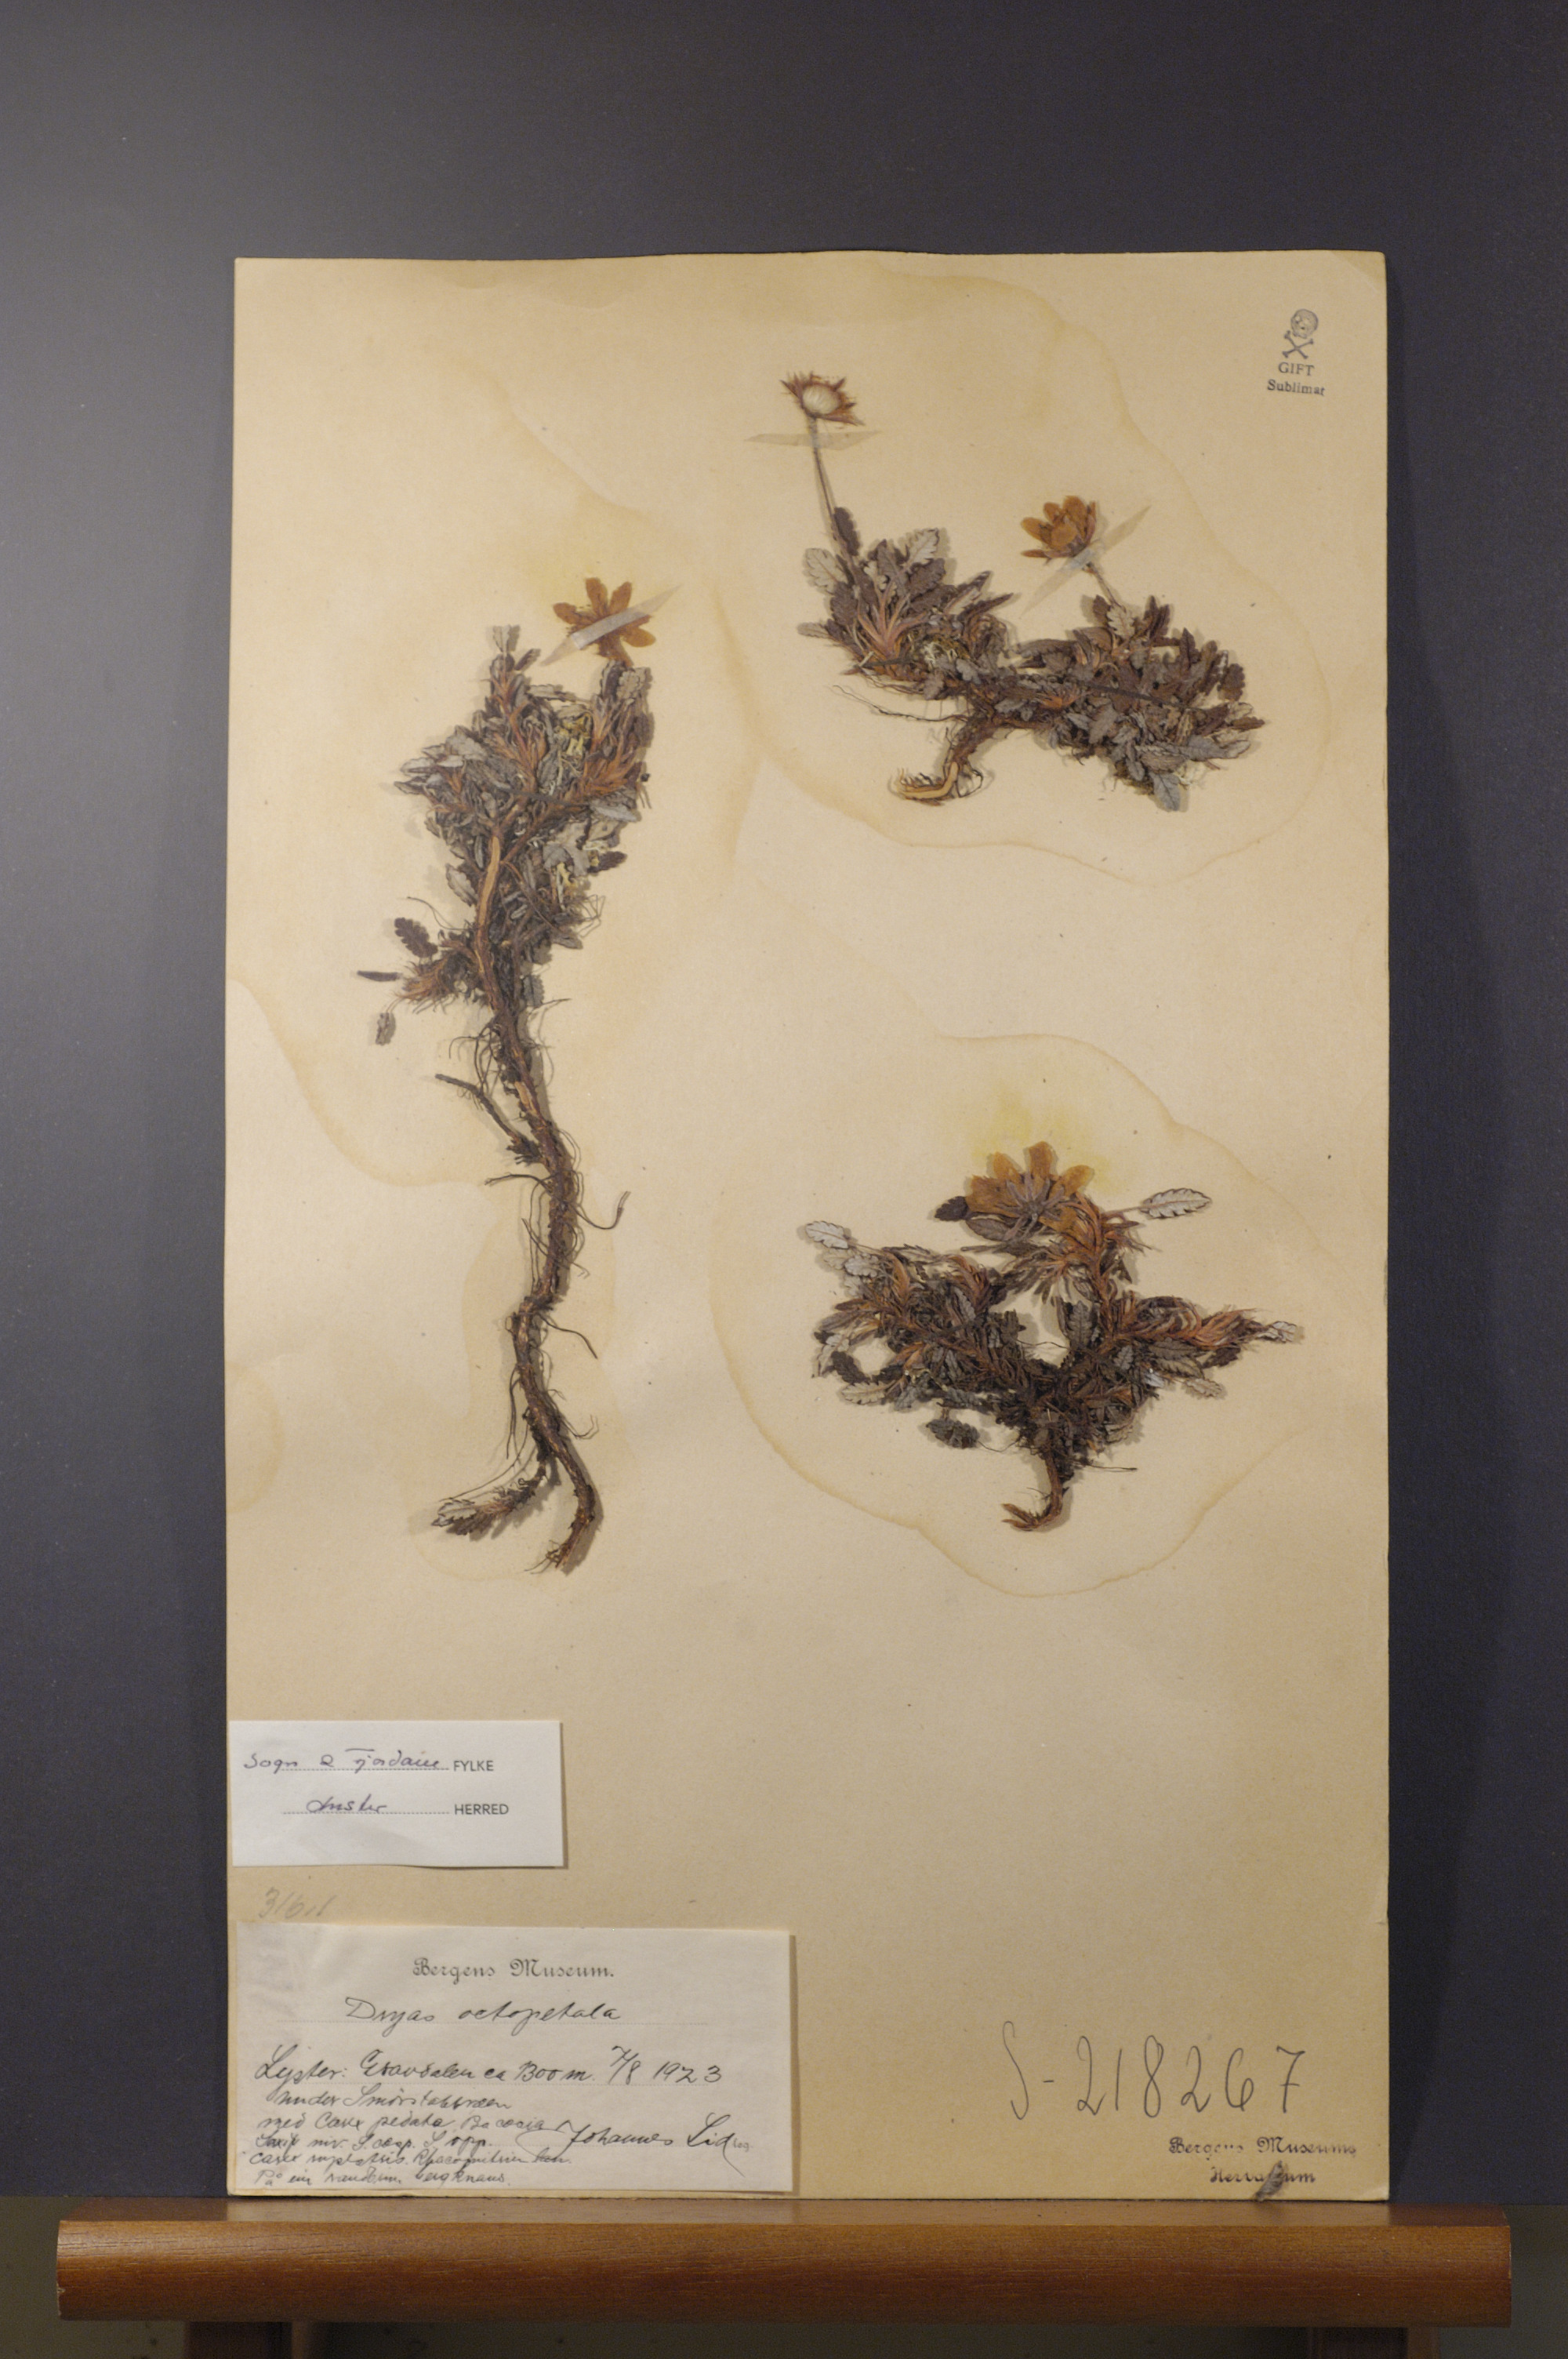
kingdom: Plantae
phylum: Tracheophyta
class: Magnoliopsida
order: Rosales
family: Rosaceae
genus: Dryas
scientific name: Dryas octopetala
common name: Eight-petal mountain-avens
